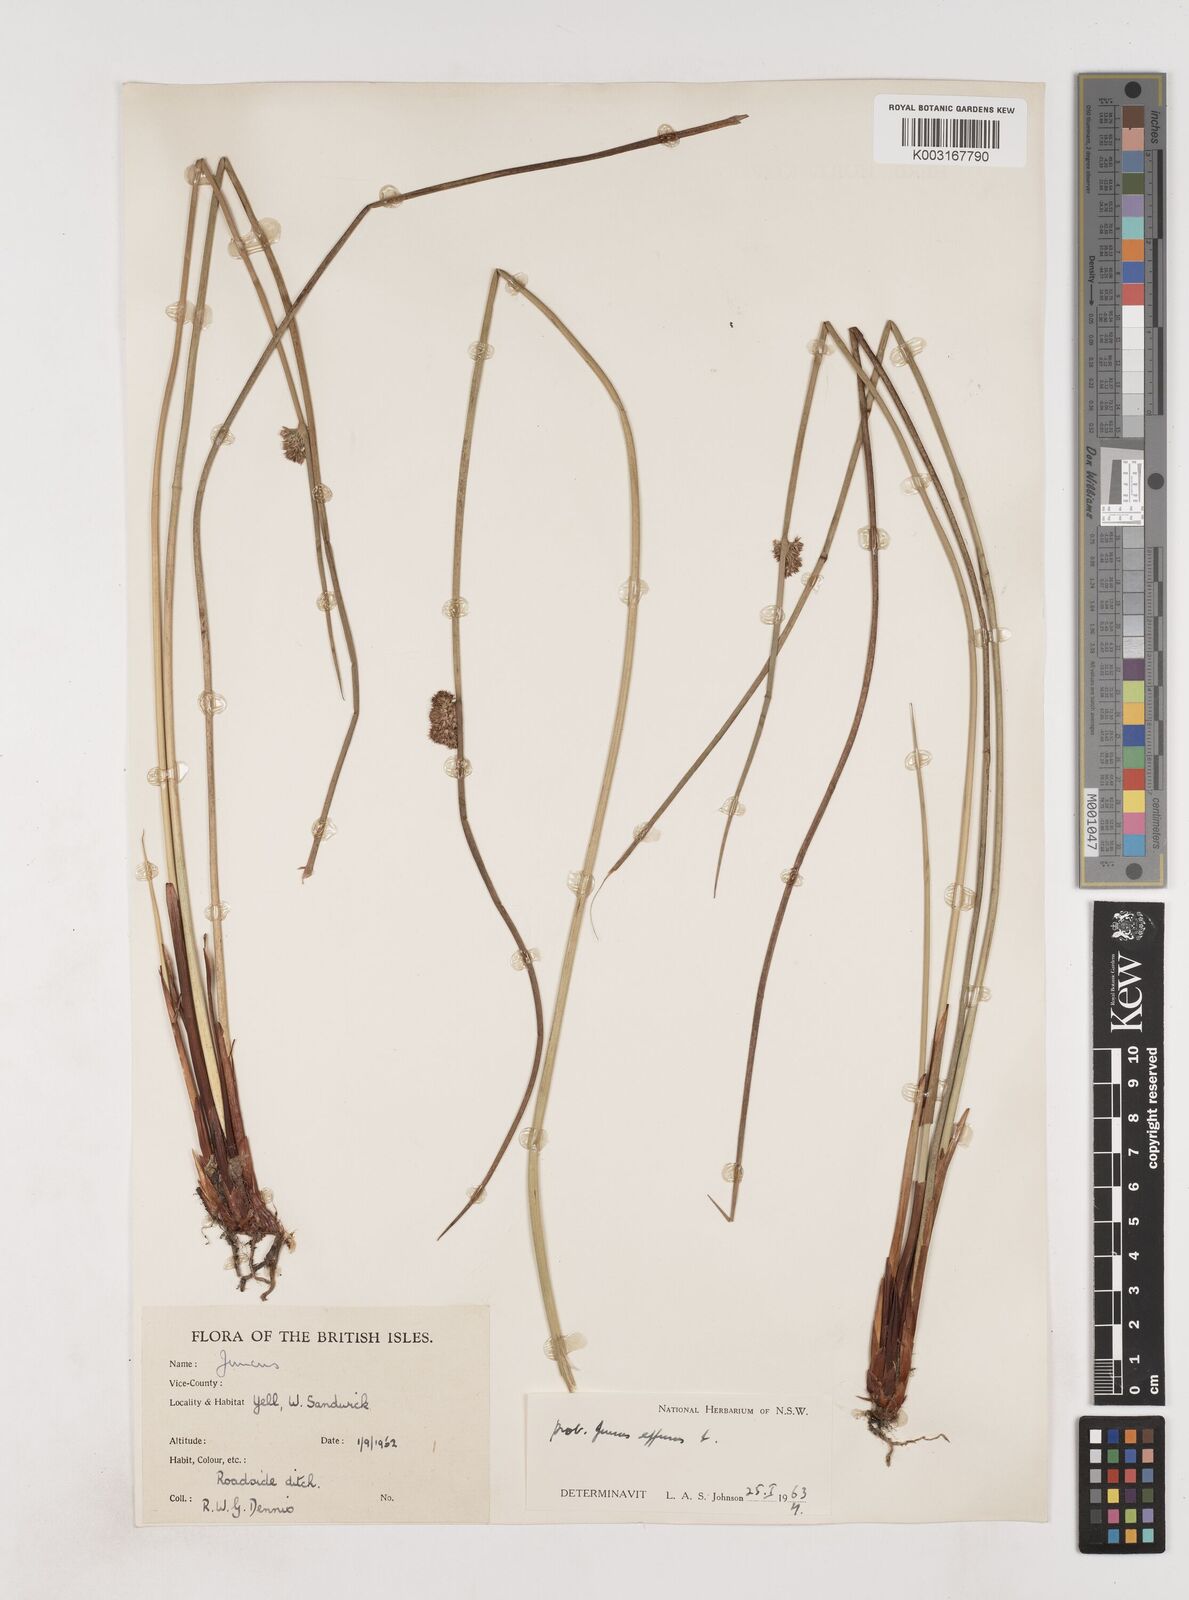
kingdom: Plantae
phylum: Tracheophyta
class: Liliopsida
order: Poales
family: Juncaceae
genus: Juncus
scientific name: Juncus effusus
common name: Soft rush
